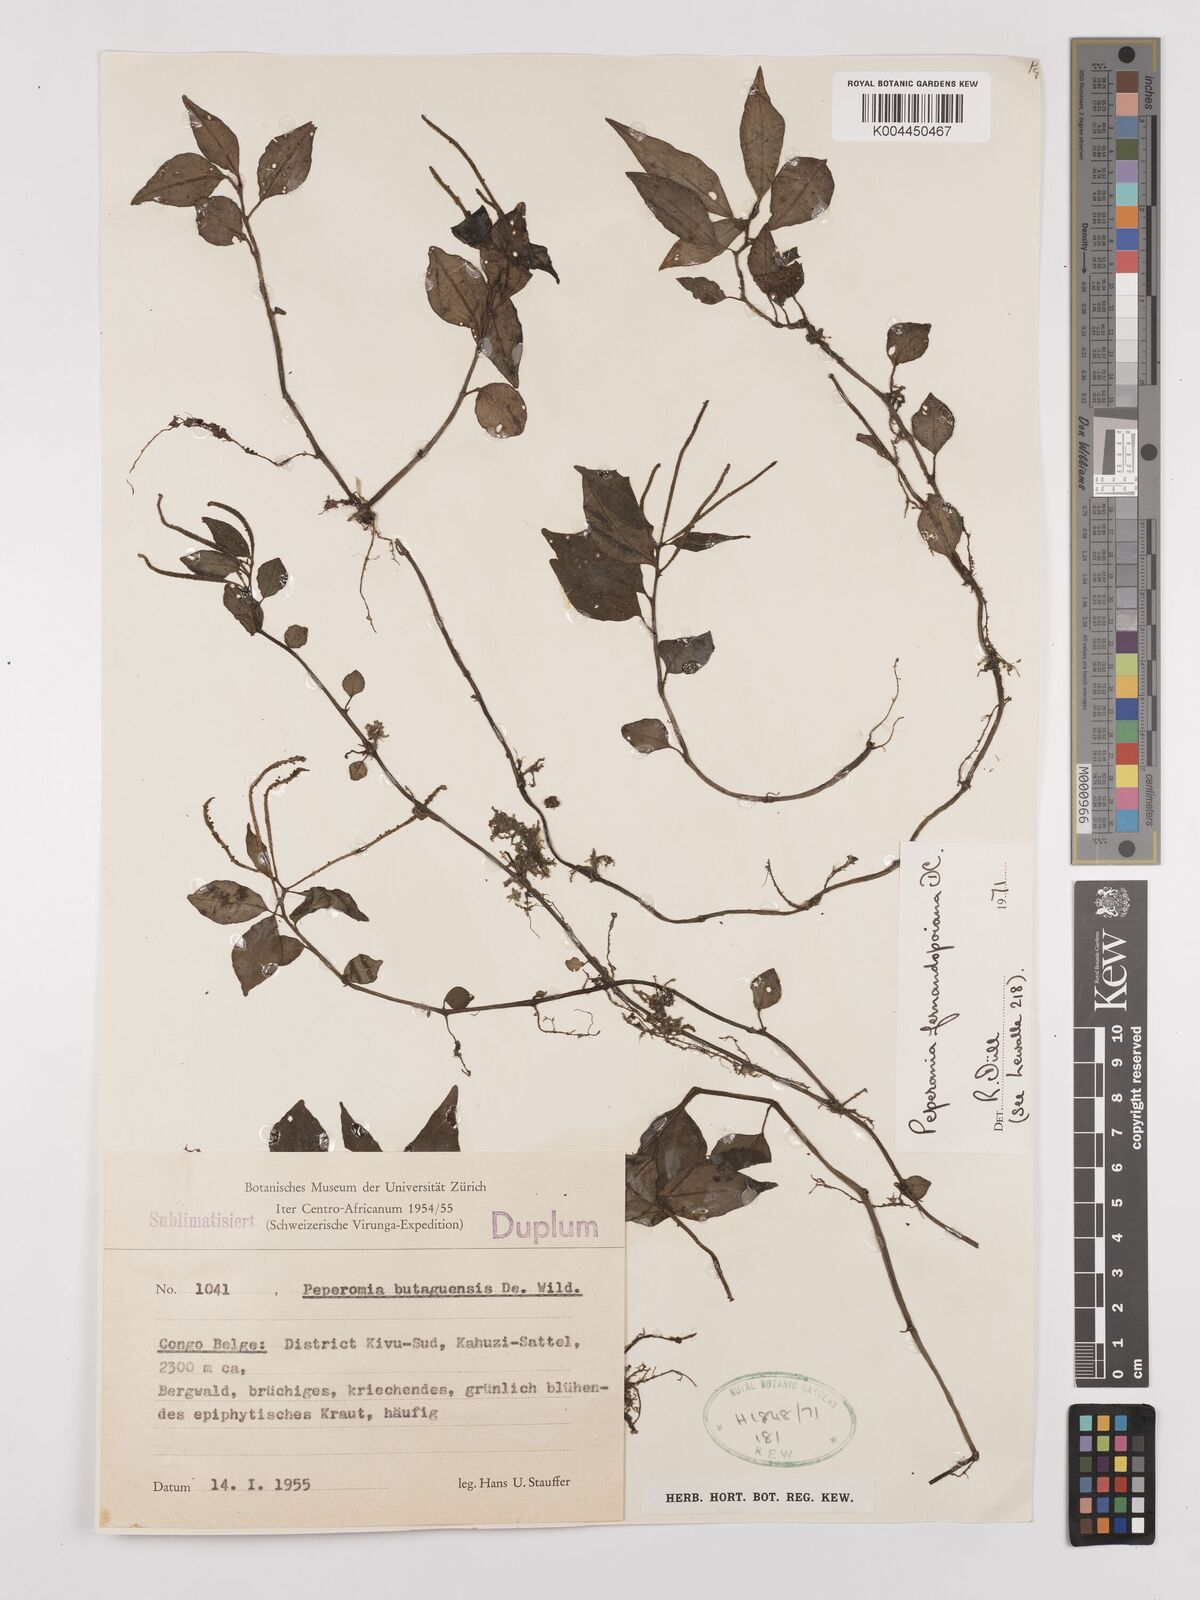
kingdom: Plantae
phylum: Tracheophyta
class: Magnoliopsida
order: Piperales
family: Piperaceae
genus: Peperomia
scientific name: Peperomia fernandopoiana
